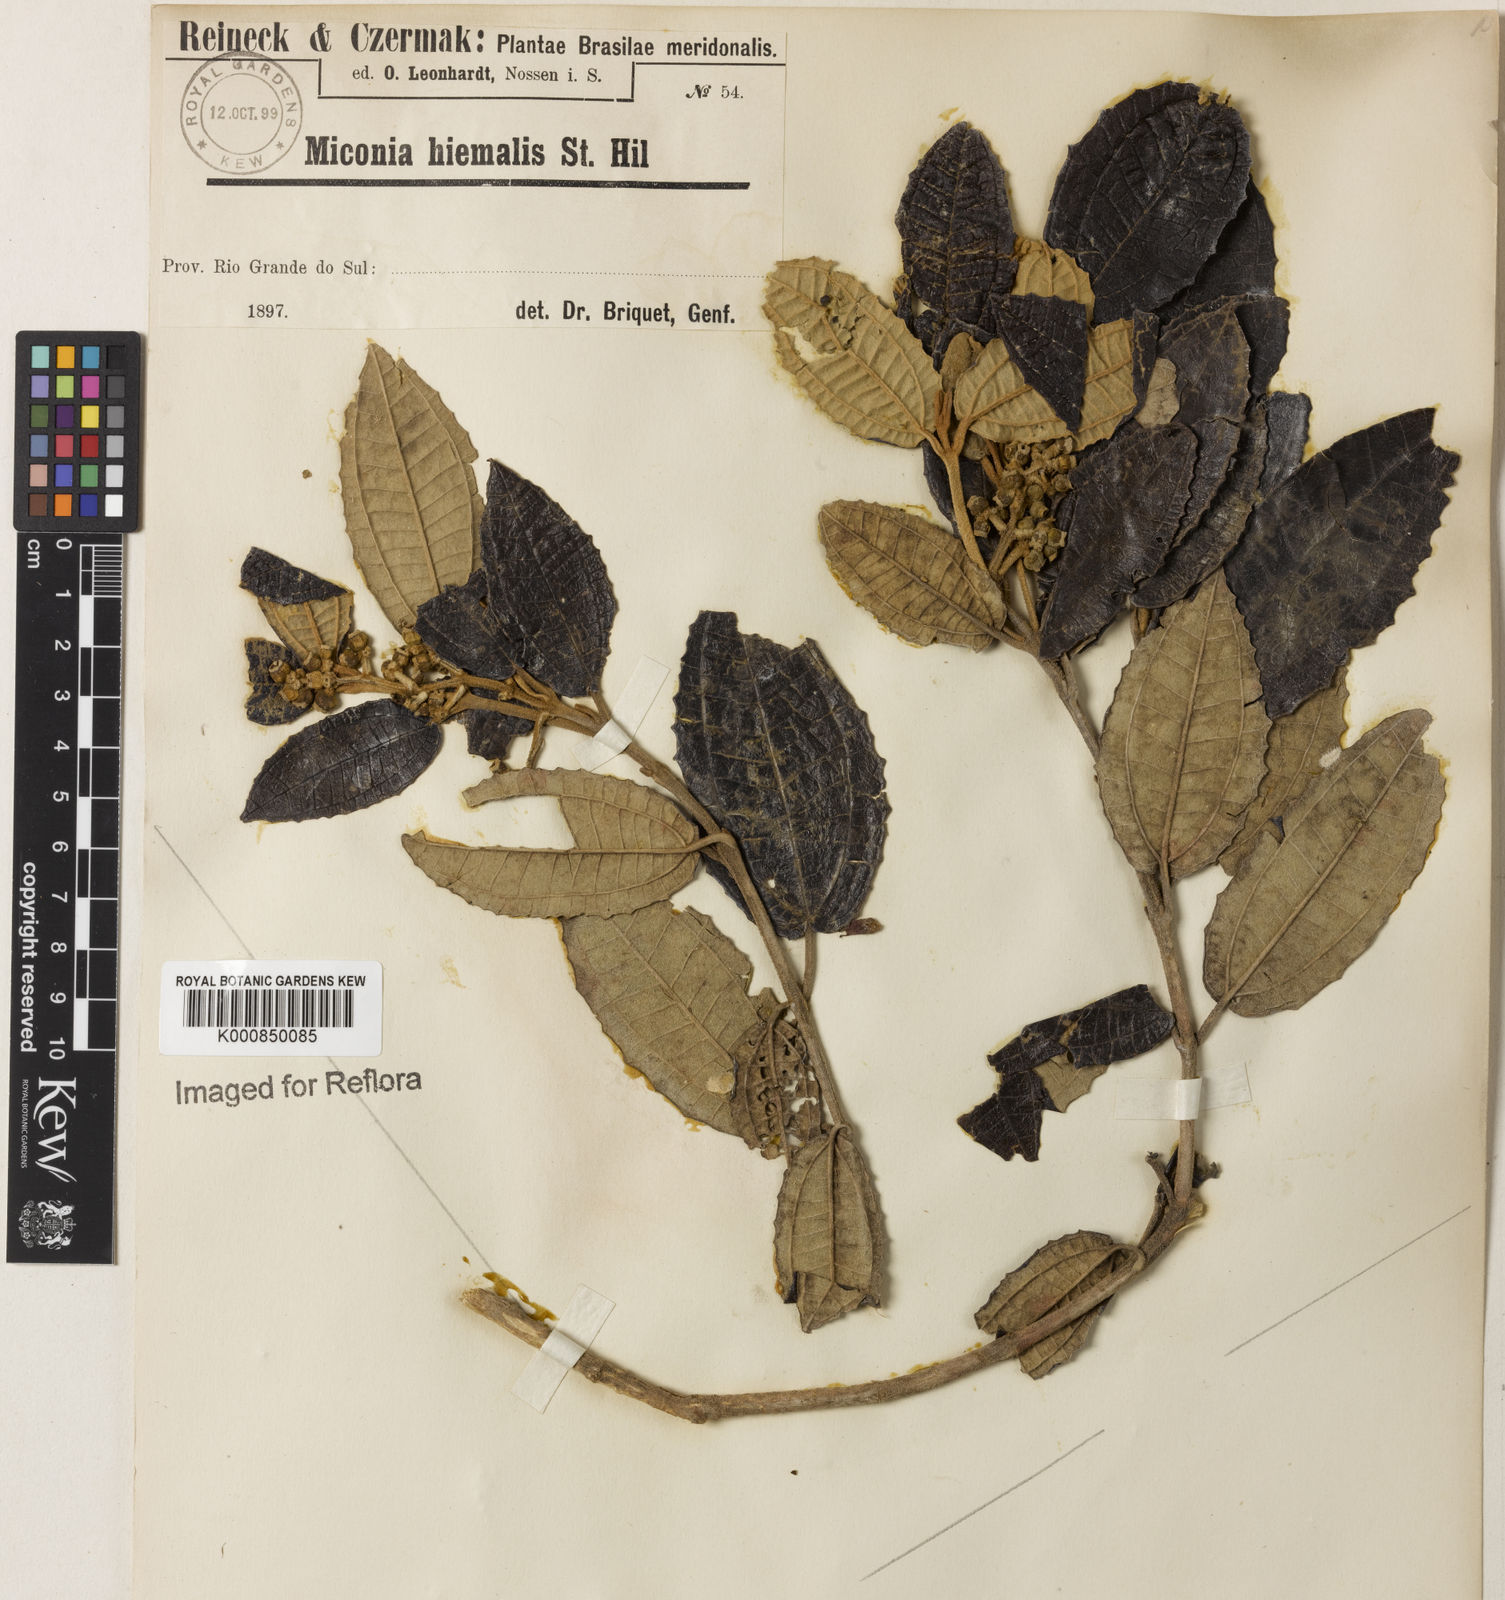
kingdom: Plantae
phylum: Tracheophyta
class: Magnoliopsida
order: Myrtales
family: Melastomataceae
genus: Miconia
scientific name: Miconia hyemalis
